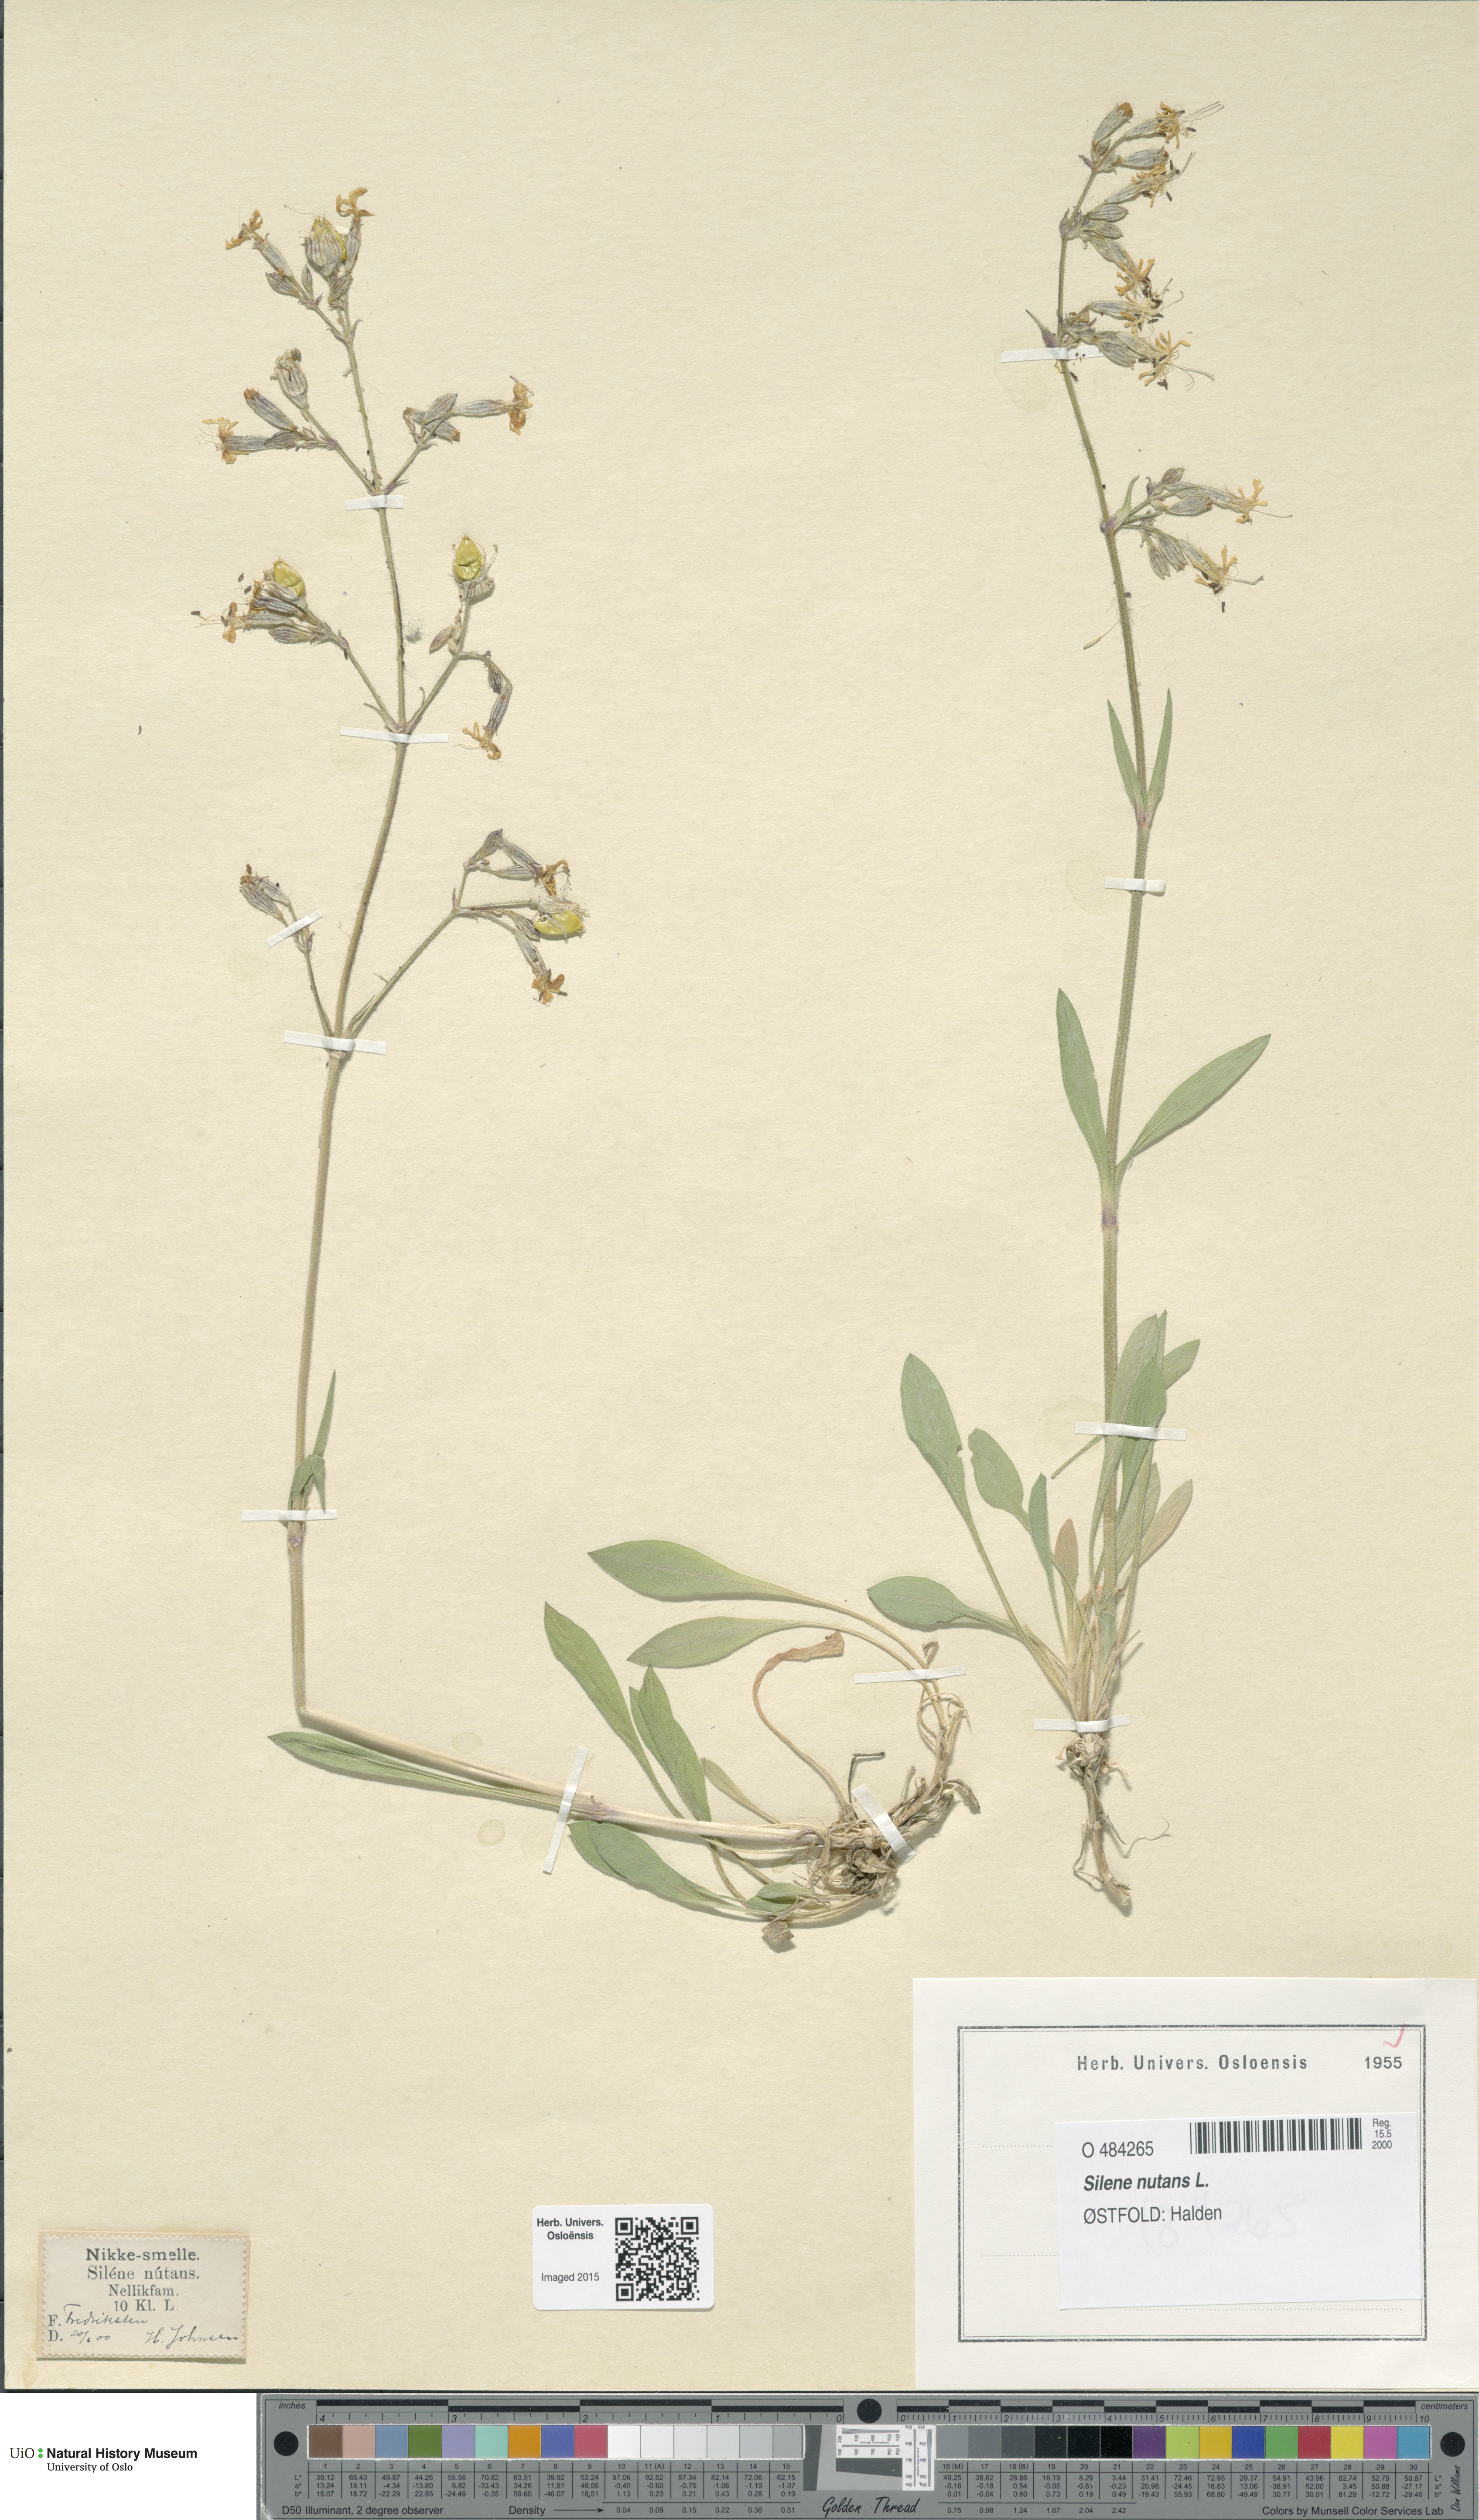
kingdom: Plantae
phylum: Tracheophyta
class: Magnoliopsida
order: Caryophyllales
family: Caryophyllaceae
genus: Silene
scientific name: Silene nutans
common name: Nottingham catchfly
